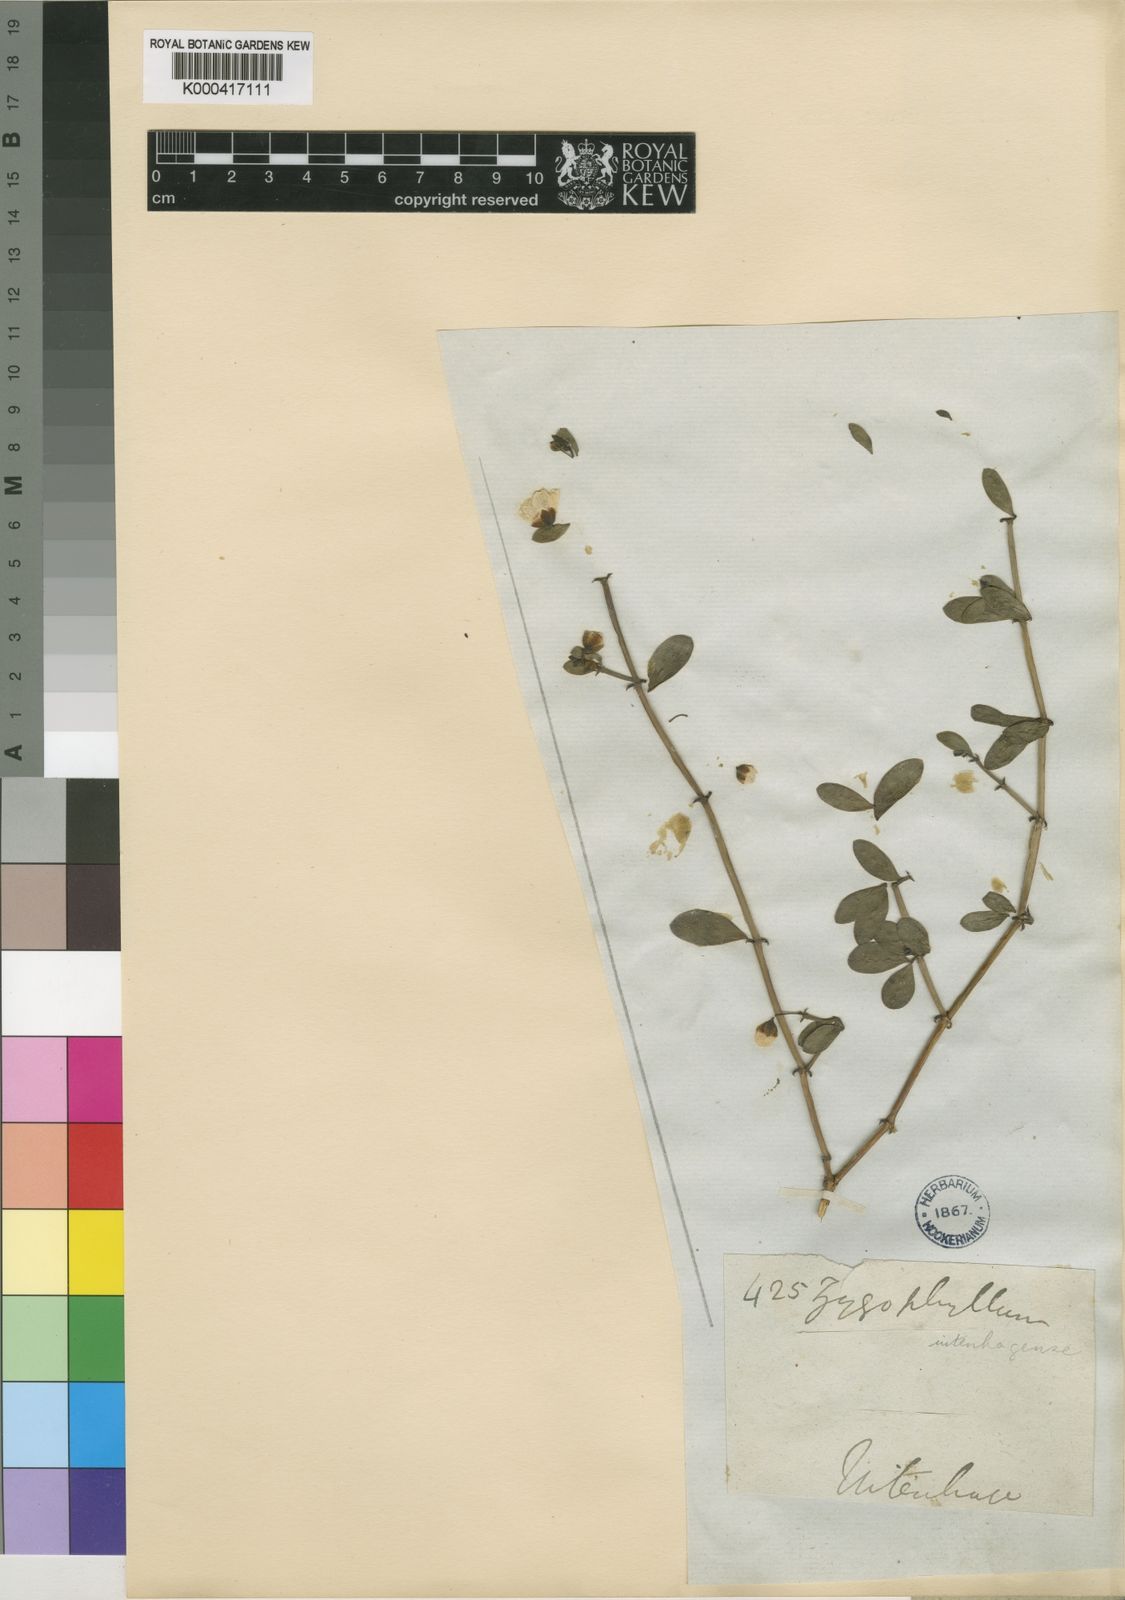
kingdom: Plantae
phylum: Tracheophyta
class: Magnoliopsida
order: Zygophyllales
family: Zygophyllaceae
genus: Roepera
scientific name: Roepera maritima
